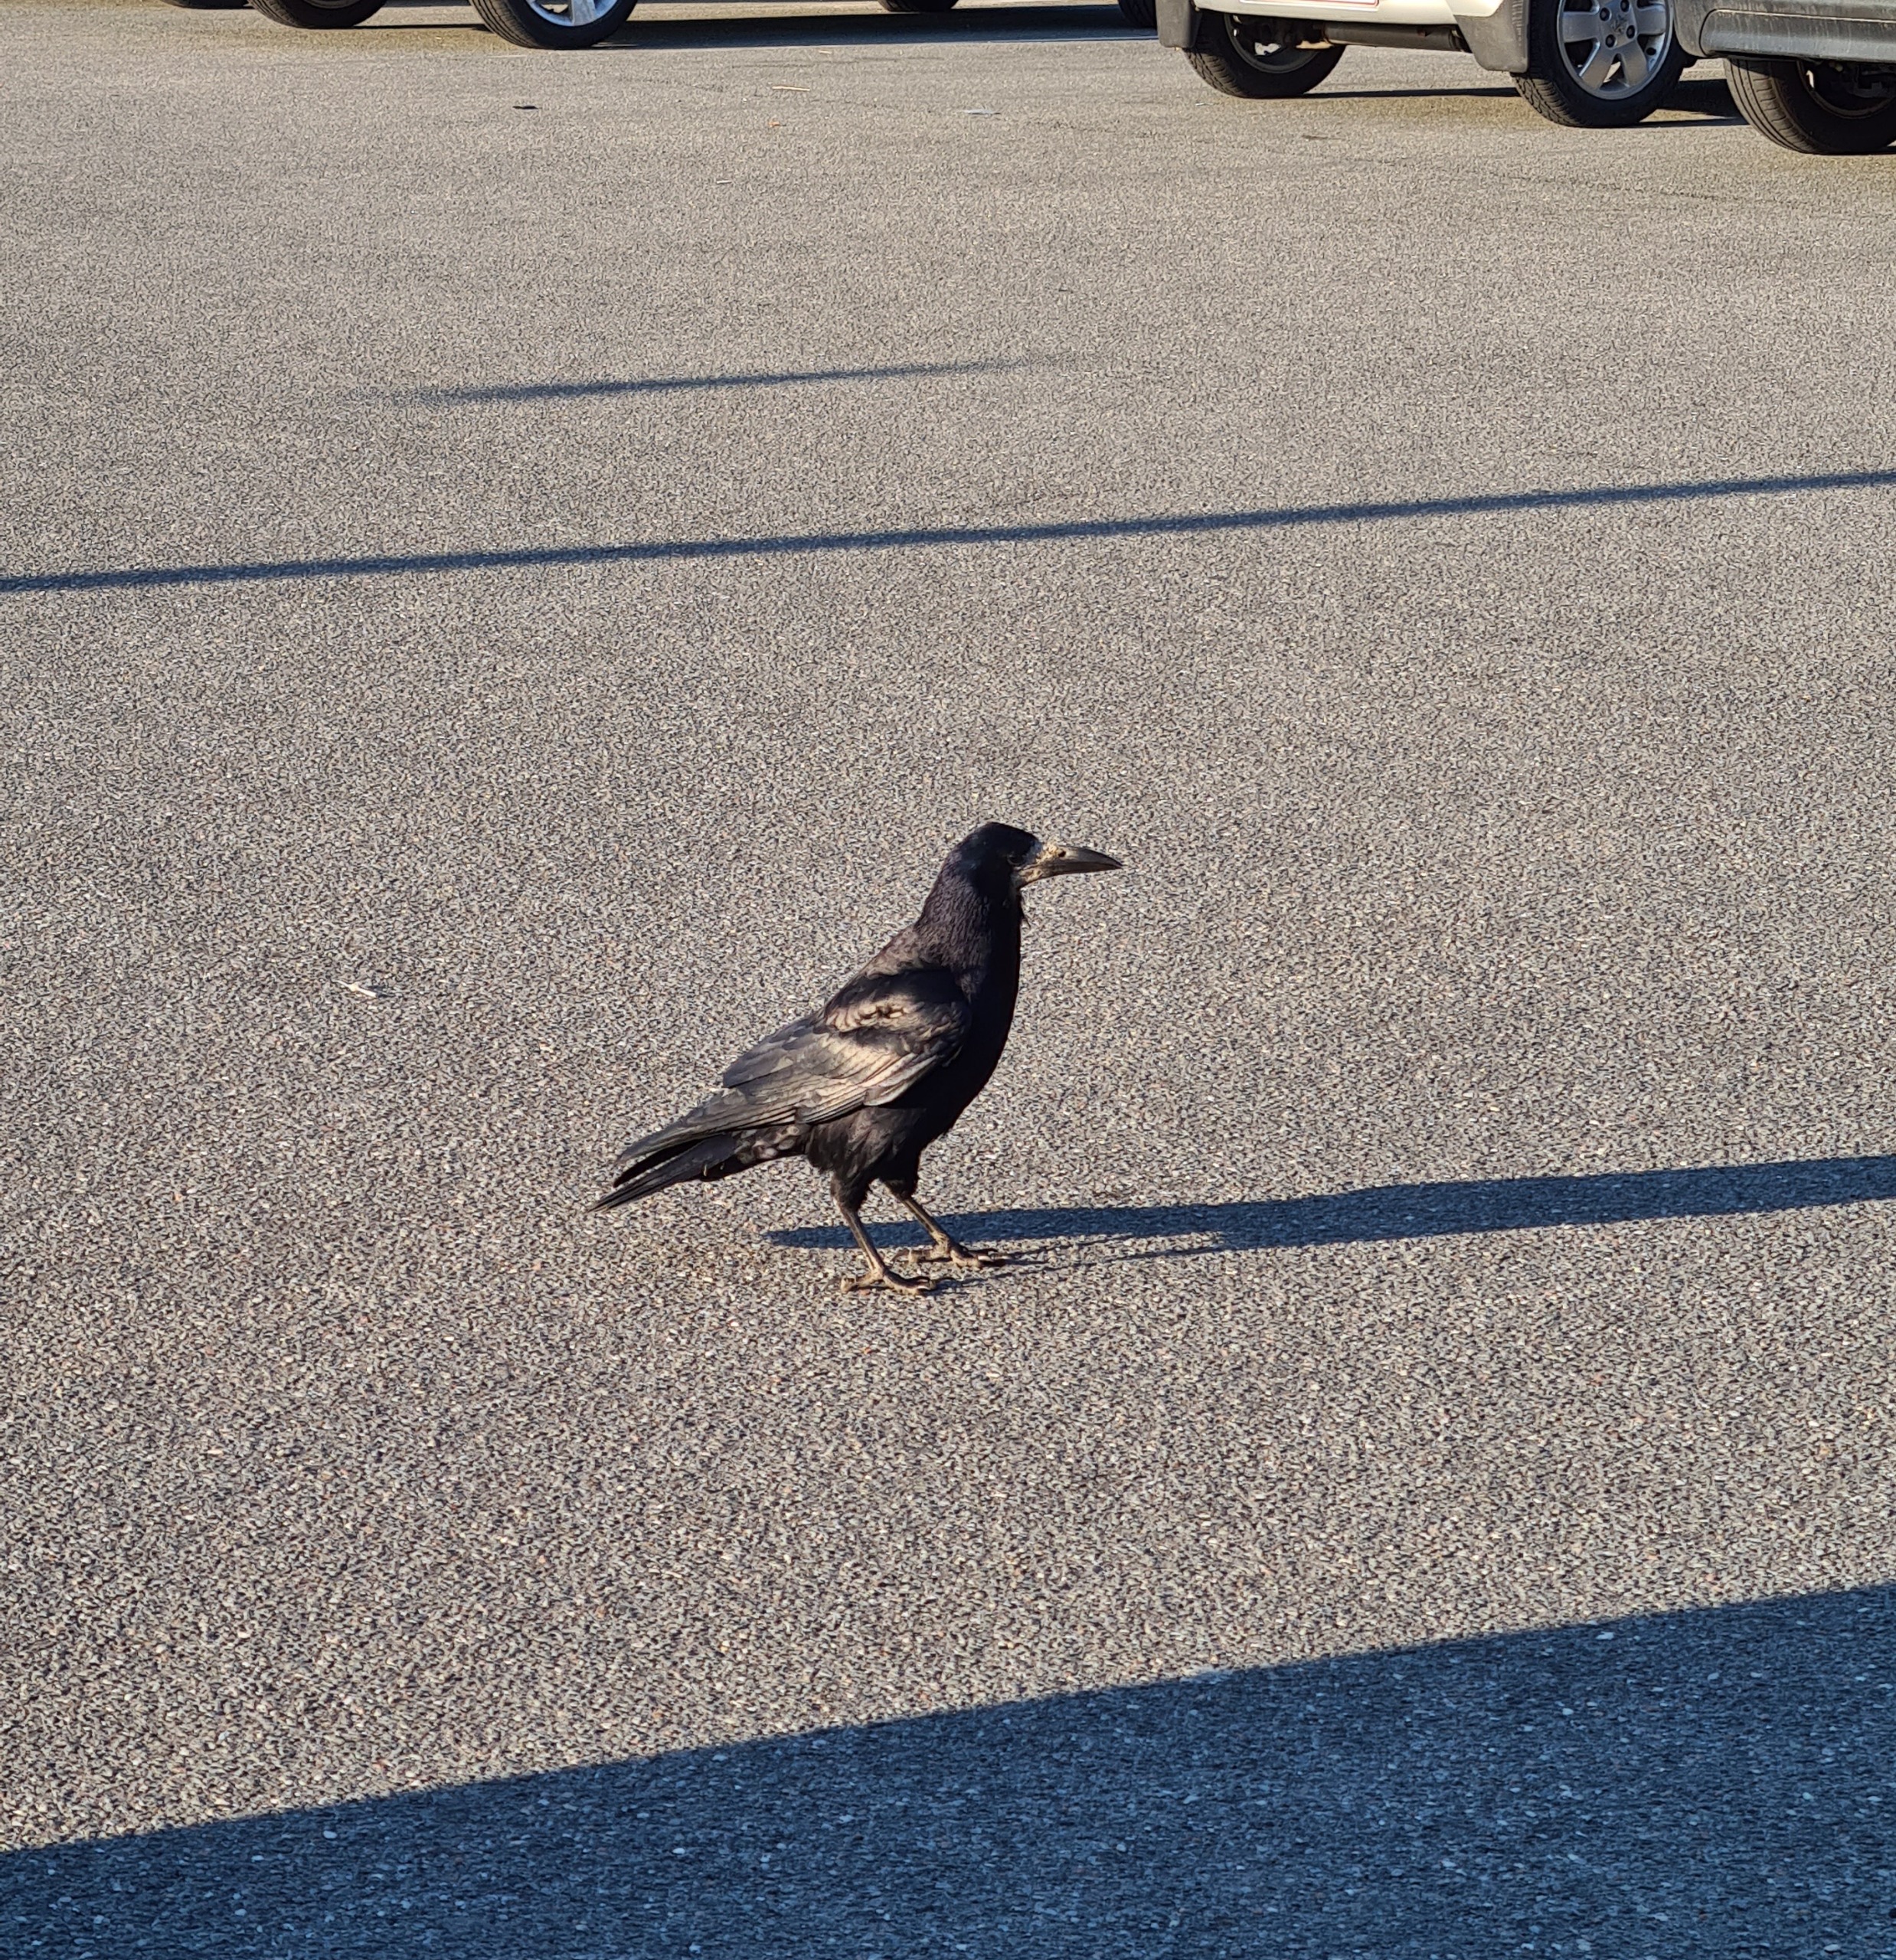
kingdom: Animalia
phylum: Chordata
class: Aves
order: Passeriformes
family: Corvidae
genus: Corvus
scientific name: Corvus frugilegus
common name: Råge
